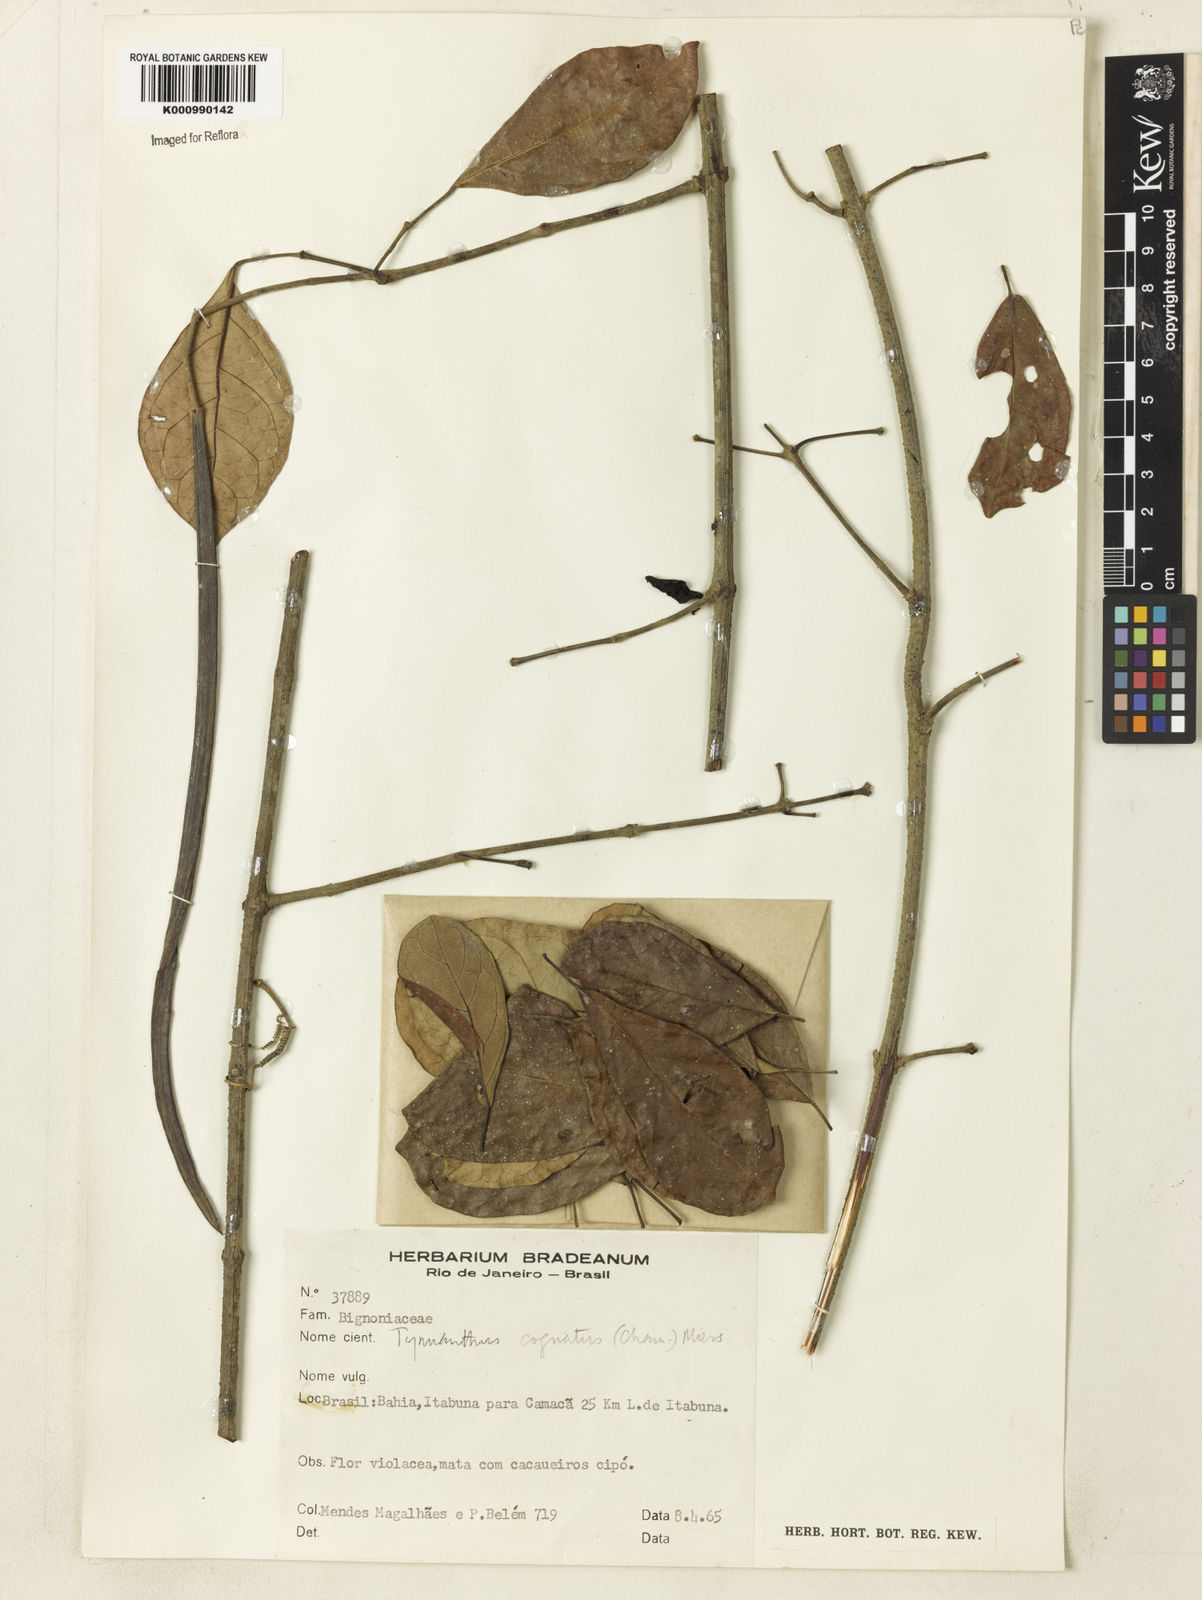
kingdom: Plantae
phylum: Tracheophyta
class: Magnoliopsida
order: Lamiales
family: Bignoniaceae
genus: Tynanthus
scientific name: Tynanthus cognatus
